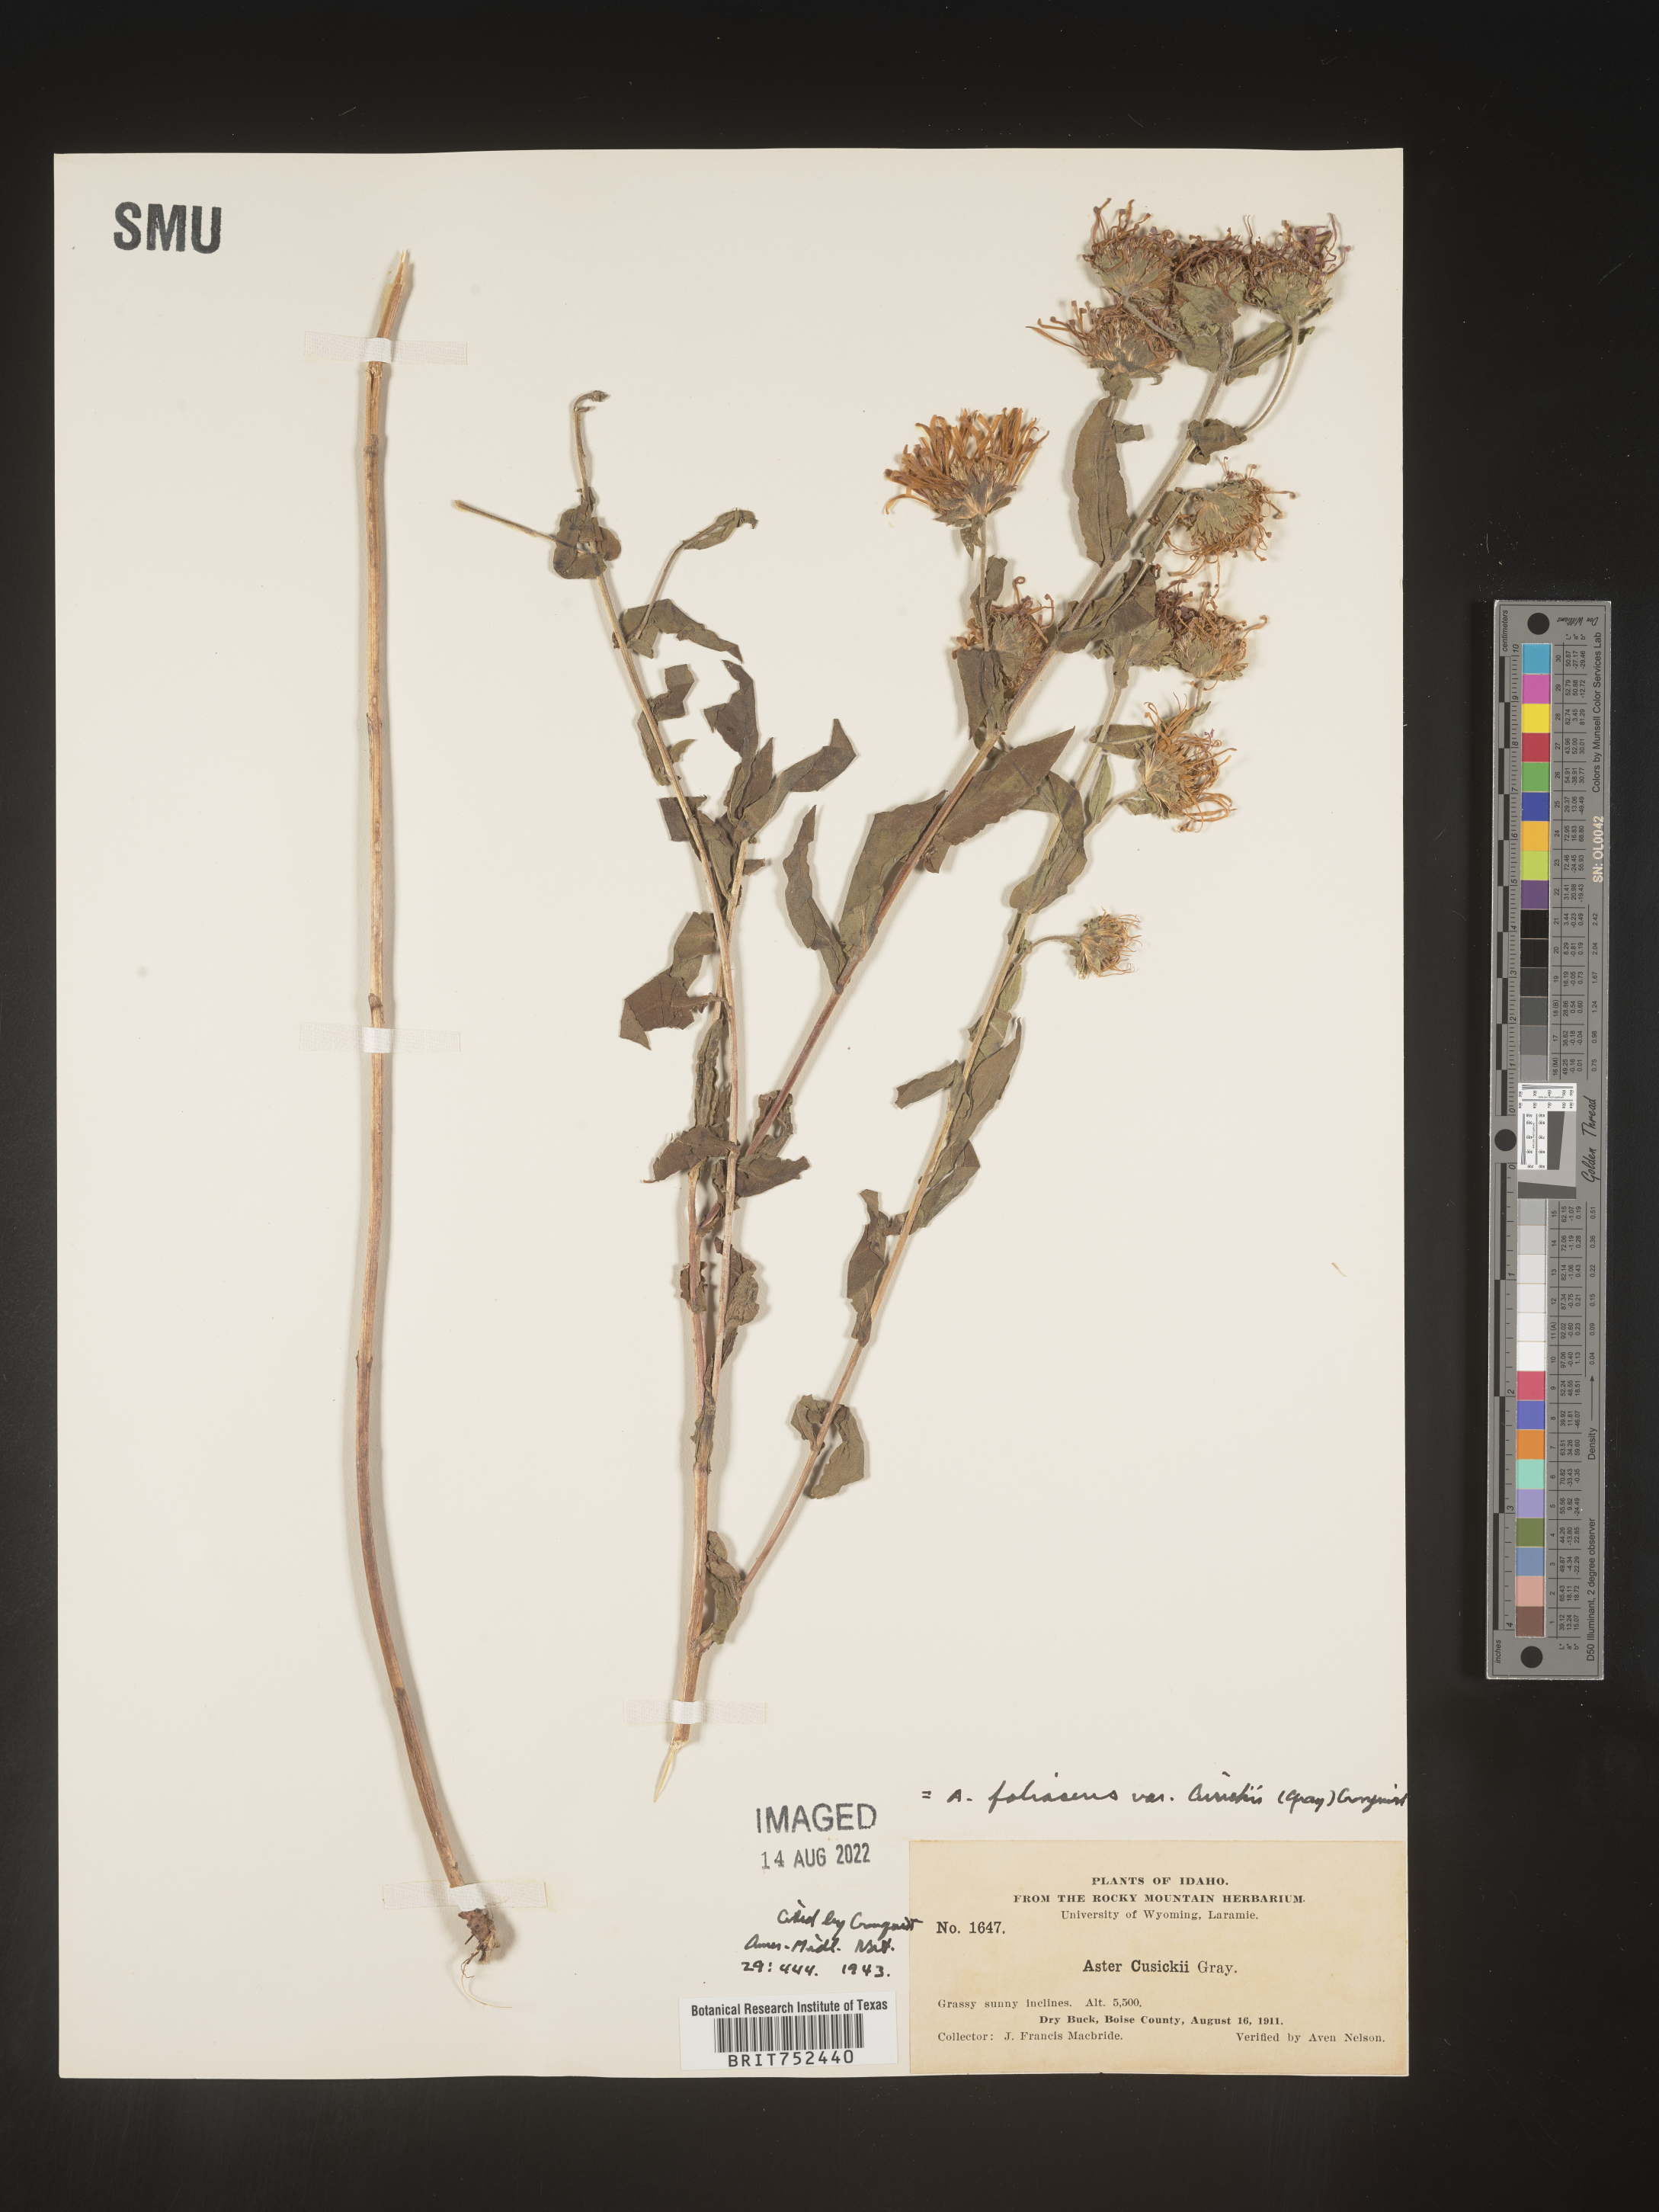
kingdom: Plantae
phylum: Tracheophyta
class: Magnoliopsida
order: Asterales
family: Asteraceae
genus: Symphyotrichum
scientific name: Symphyotrichum jessicae
